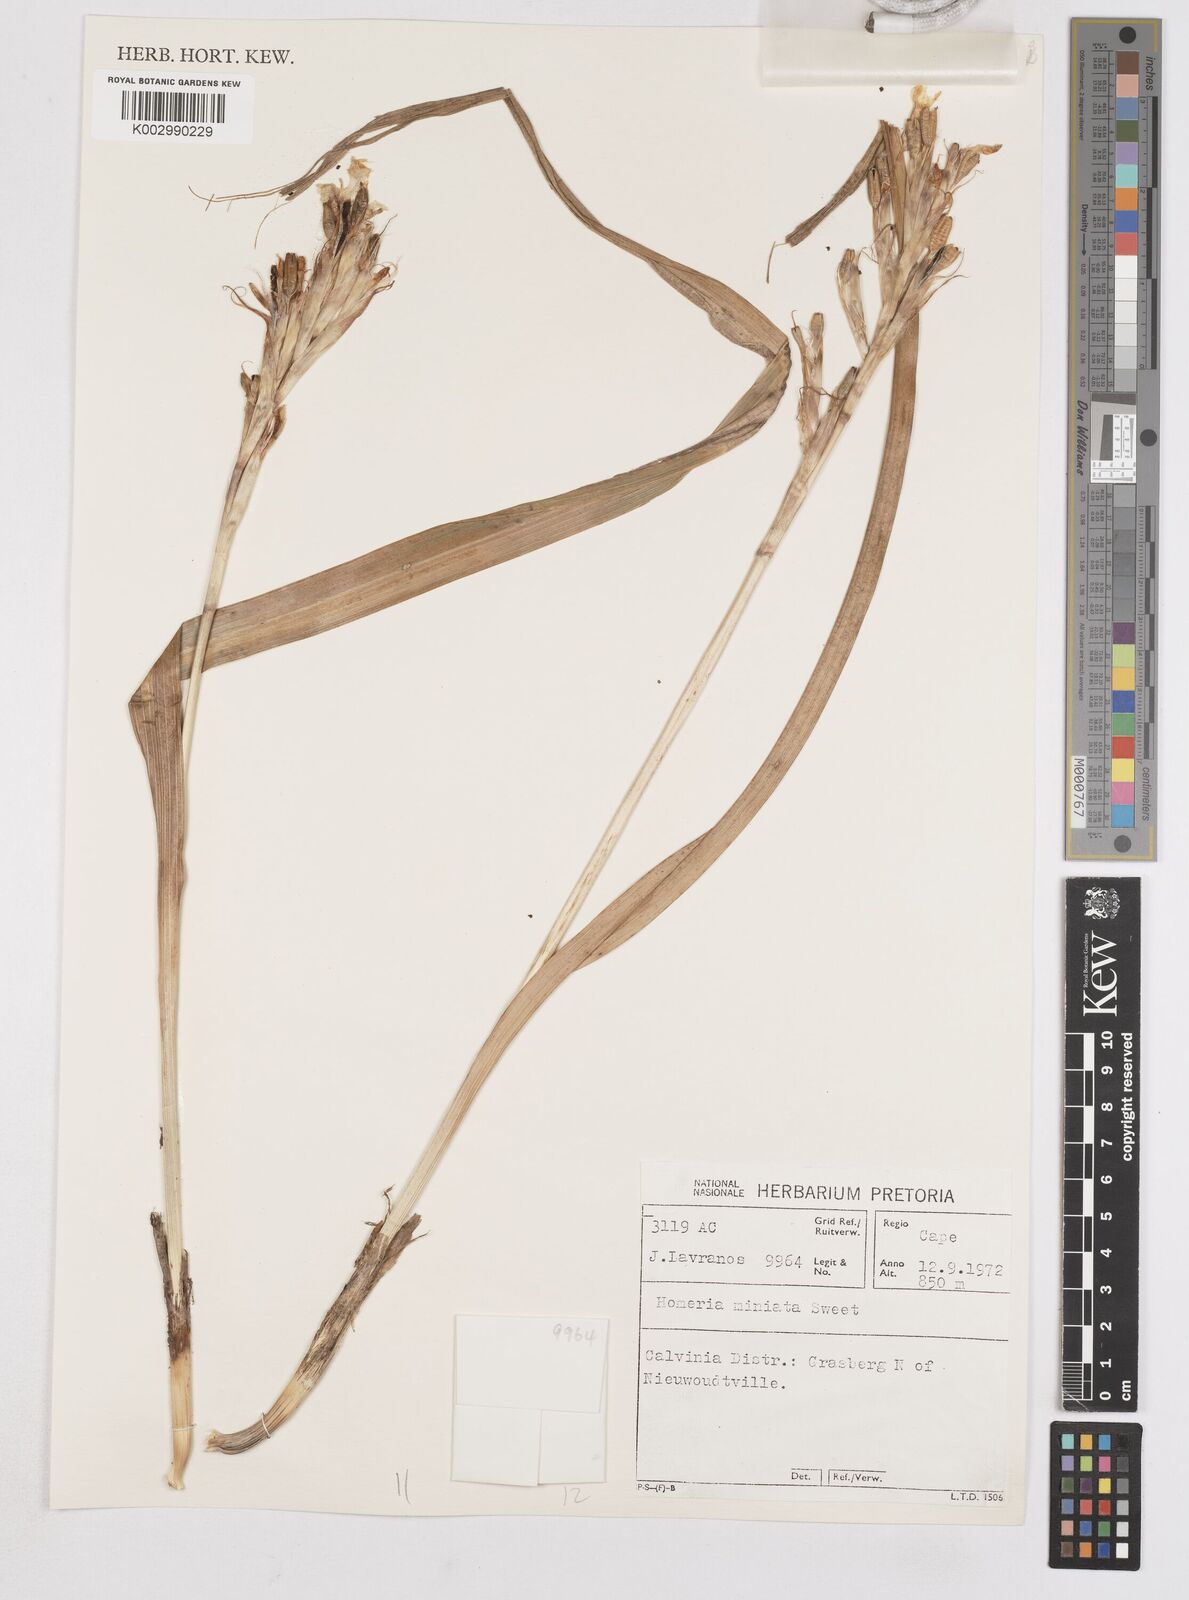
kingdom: Plantae
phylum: Tracheophyta
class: Liliopsida
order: Asparagales
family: Iridaceae
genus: Moraea
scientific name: Moraea miniata
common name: Two-leaf cape-tulip
